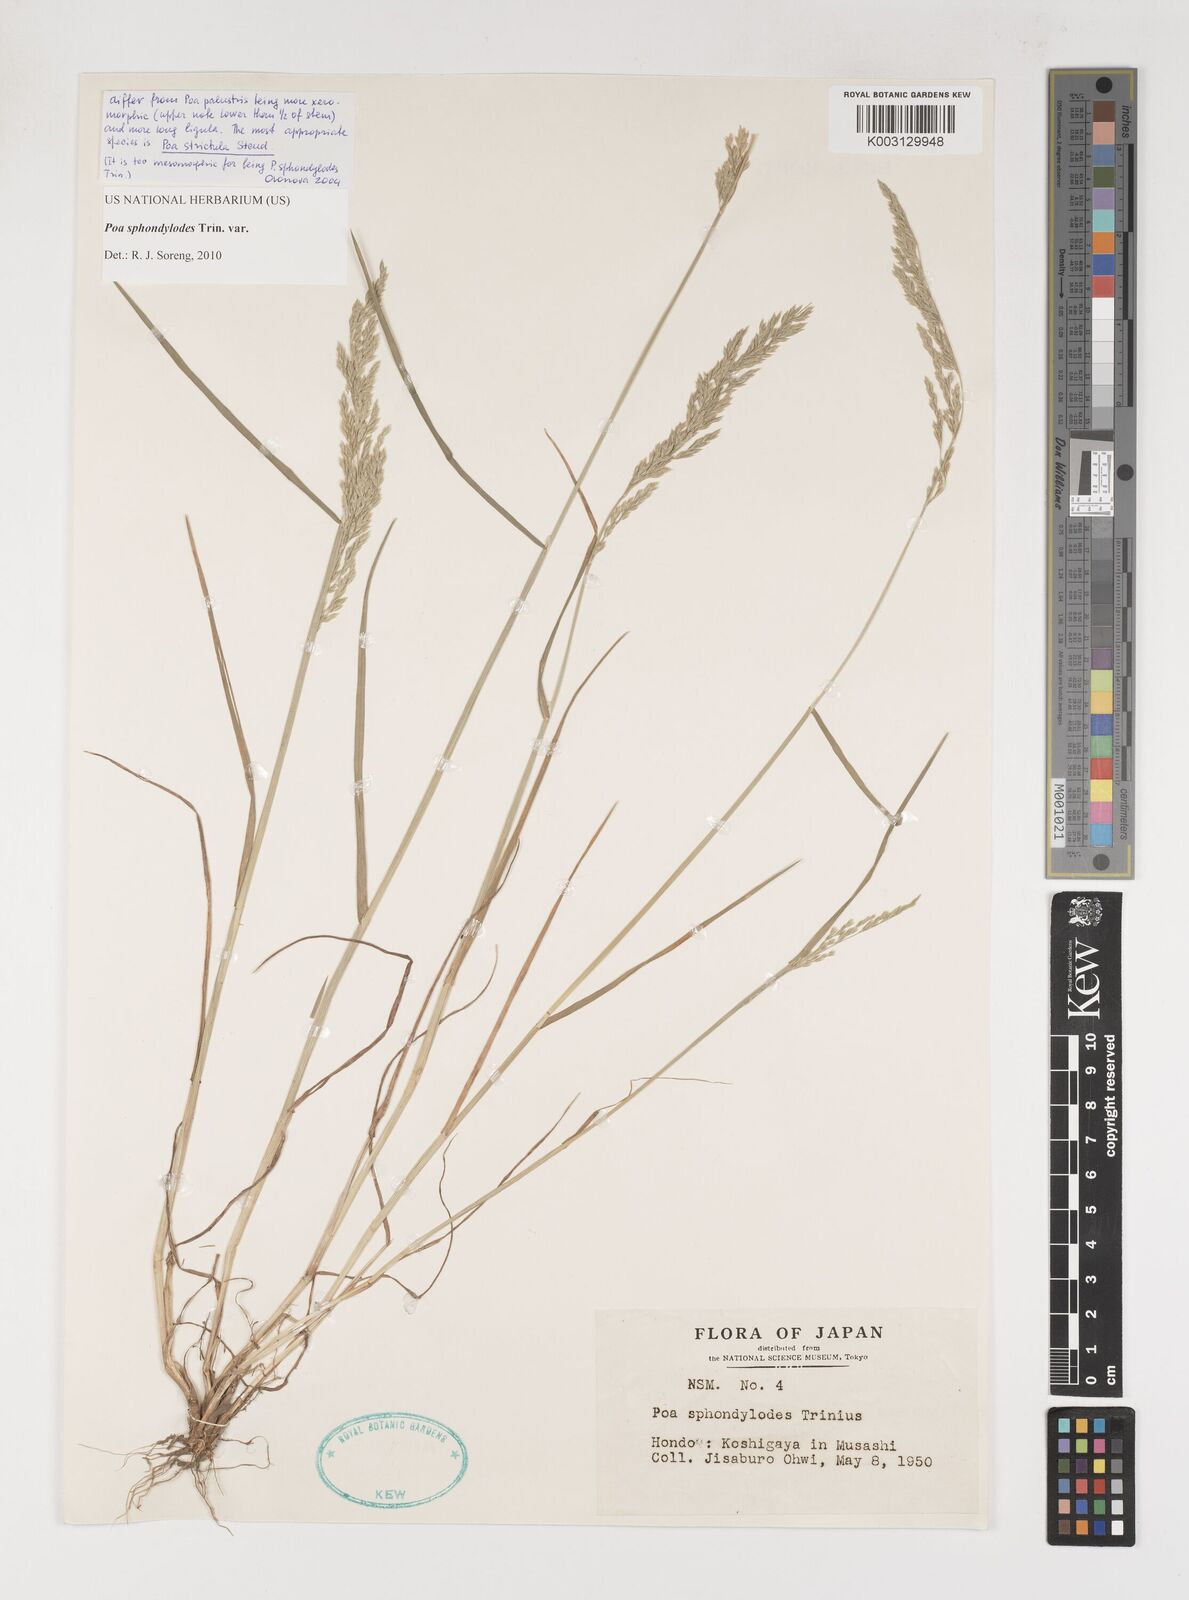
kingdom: Plantae
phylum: Tracheophyta
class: Liliopsida
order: Poales
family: Poaceae
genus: Poa
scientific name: Poa sphondylodes
